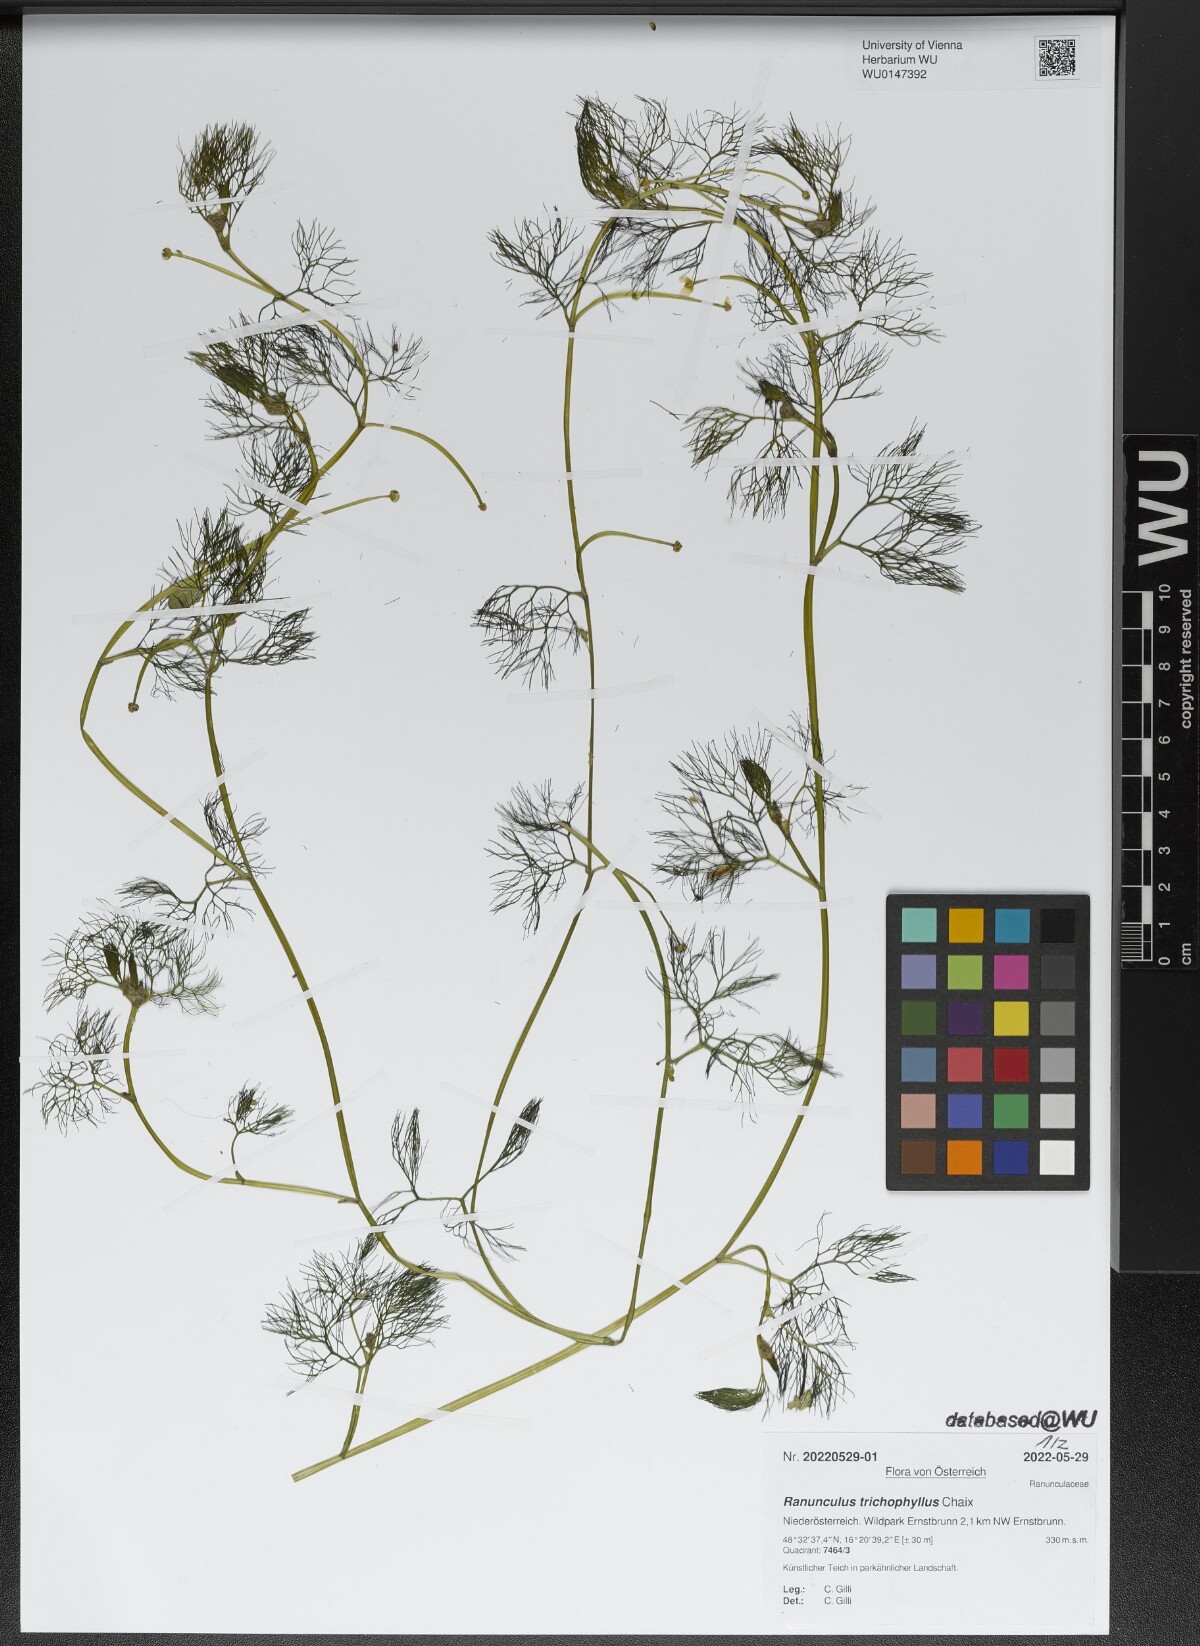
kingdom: Plantae
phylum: Tracheophyta
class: Magnoliopsida
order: Ranunculales
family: Ranunculaceae
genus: Ranunculus
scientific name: Ranunculus trichophyllus
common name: Thread-leaved water-crowfoot
